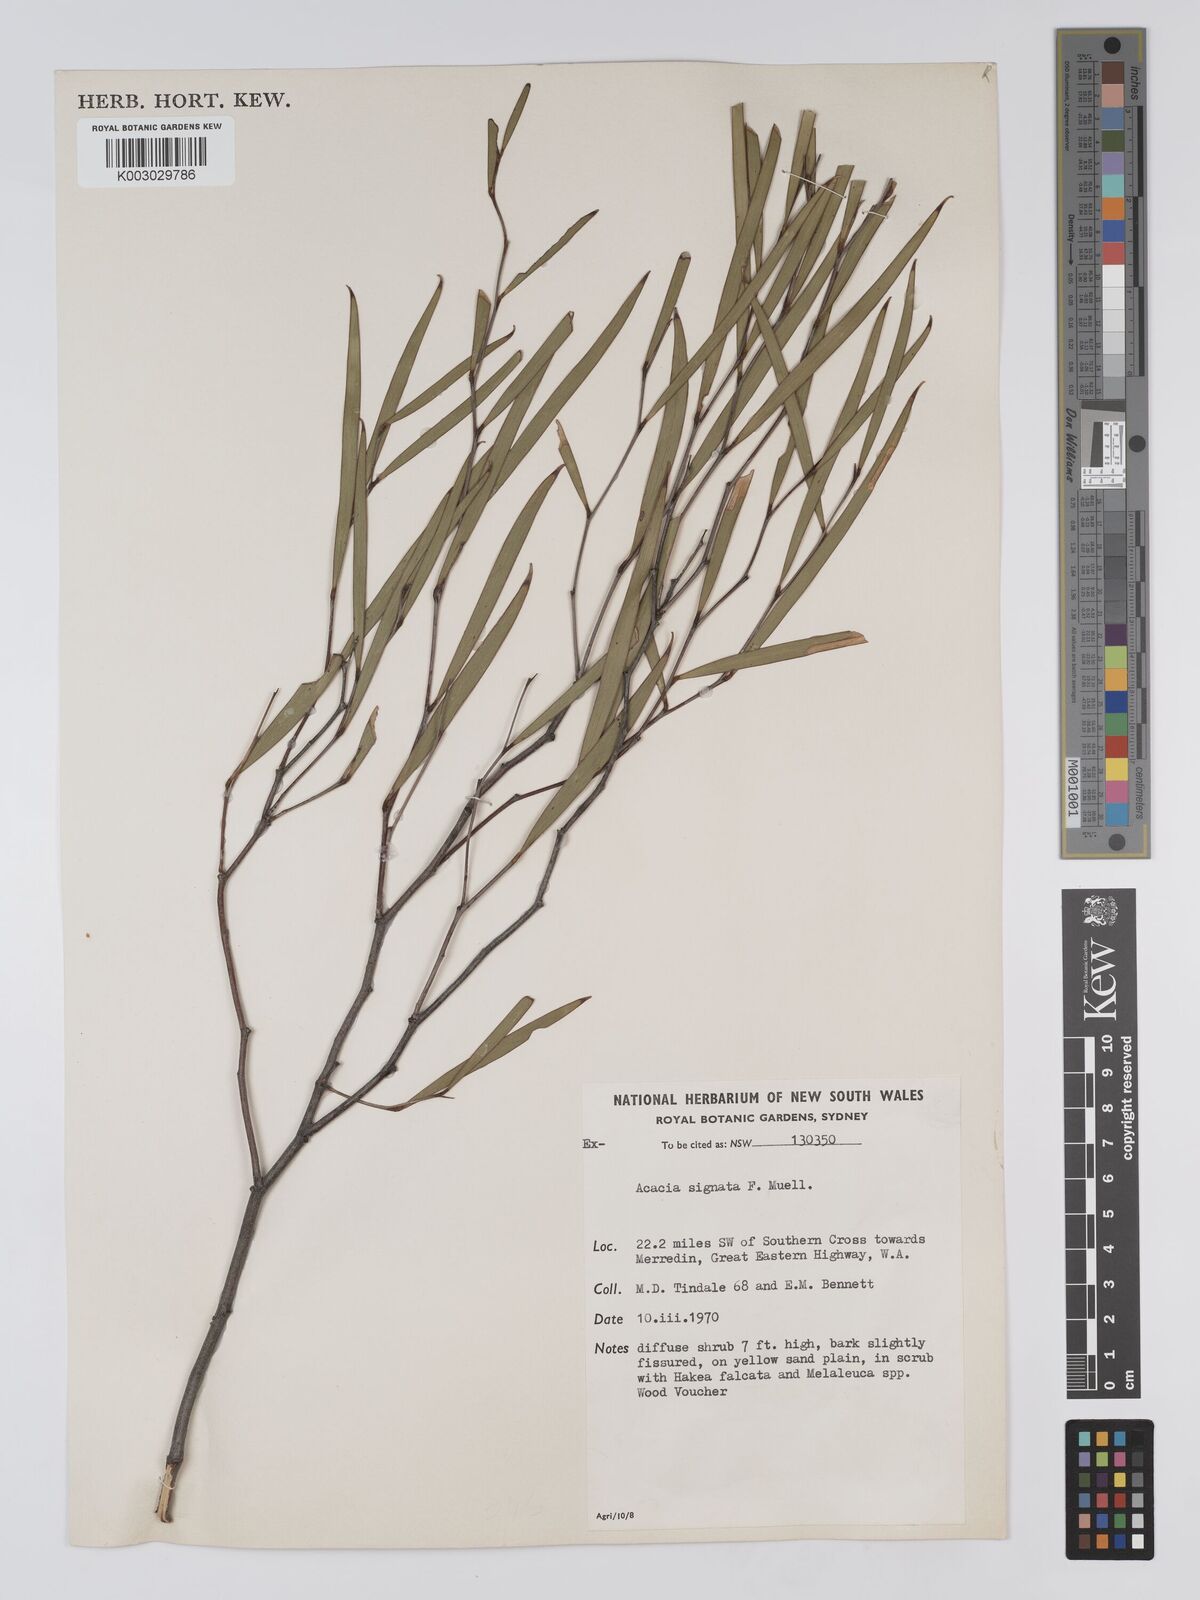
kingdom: Plantae
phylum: Tracheophyta
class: Magnoliopsida
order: Fabales
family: Fabaceae
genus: Acacia
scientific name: Acacia signata
